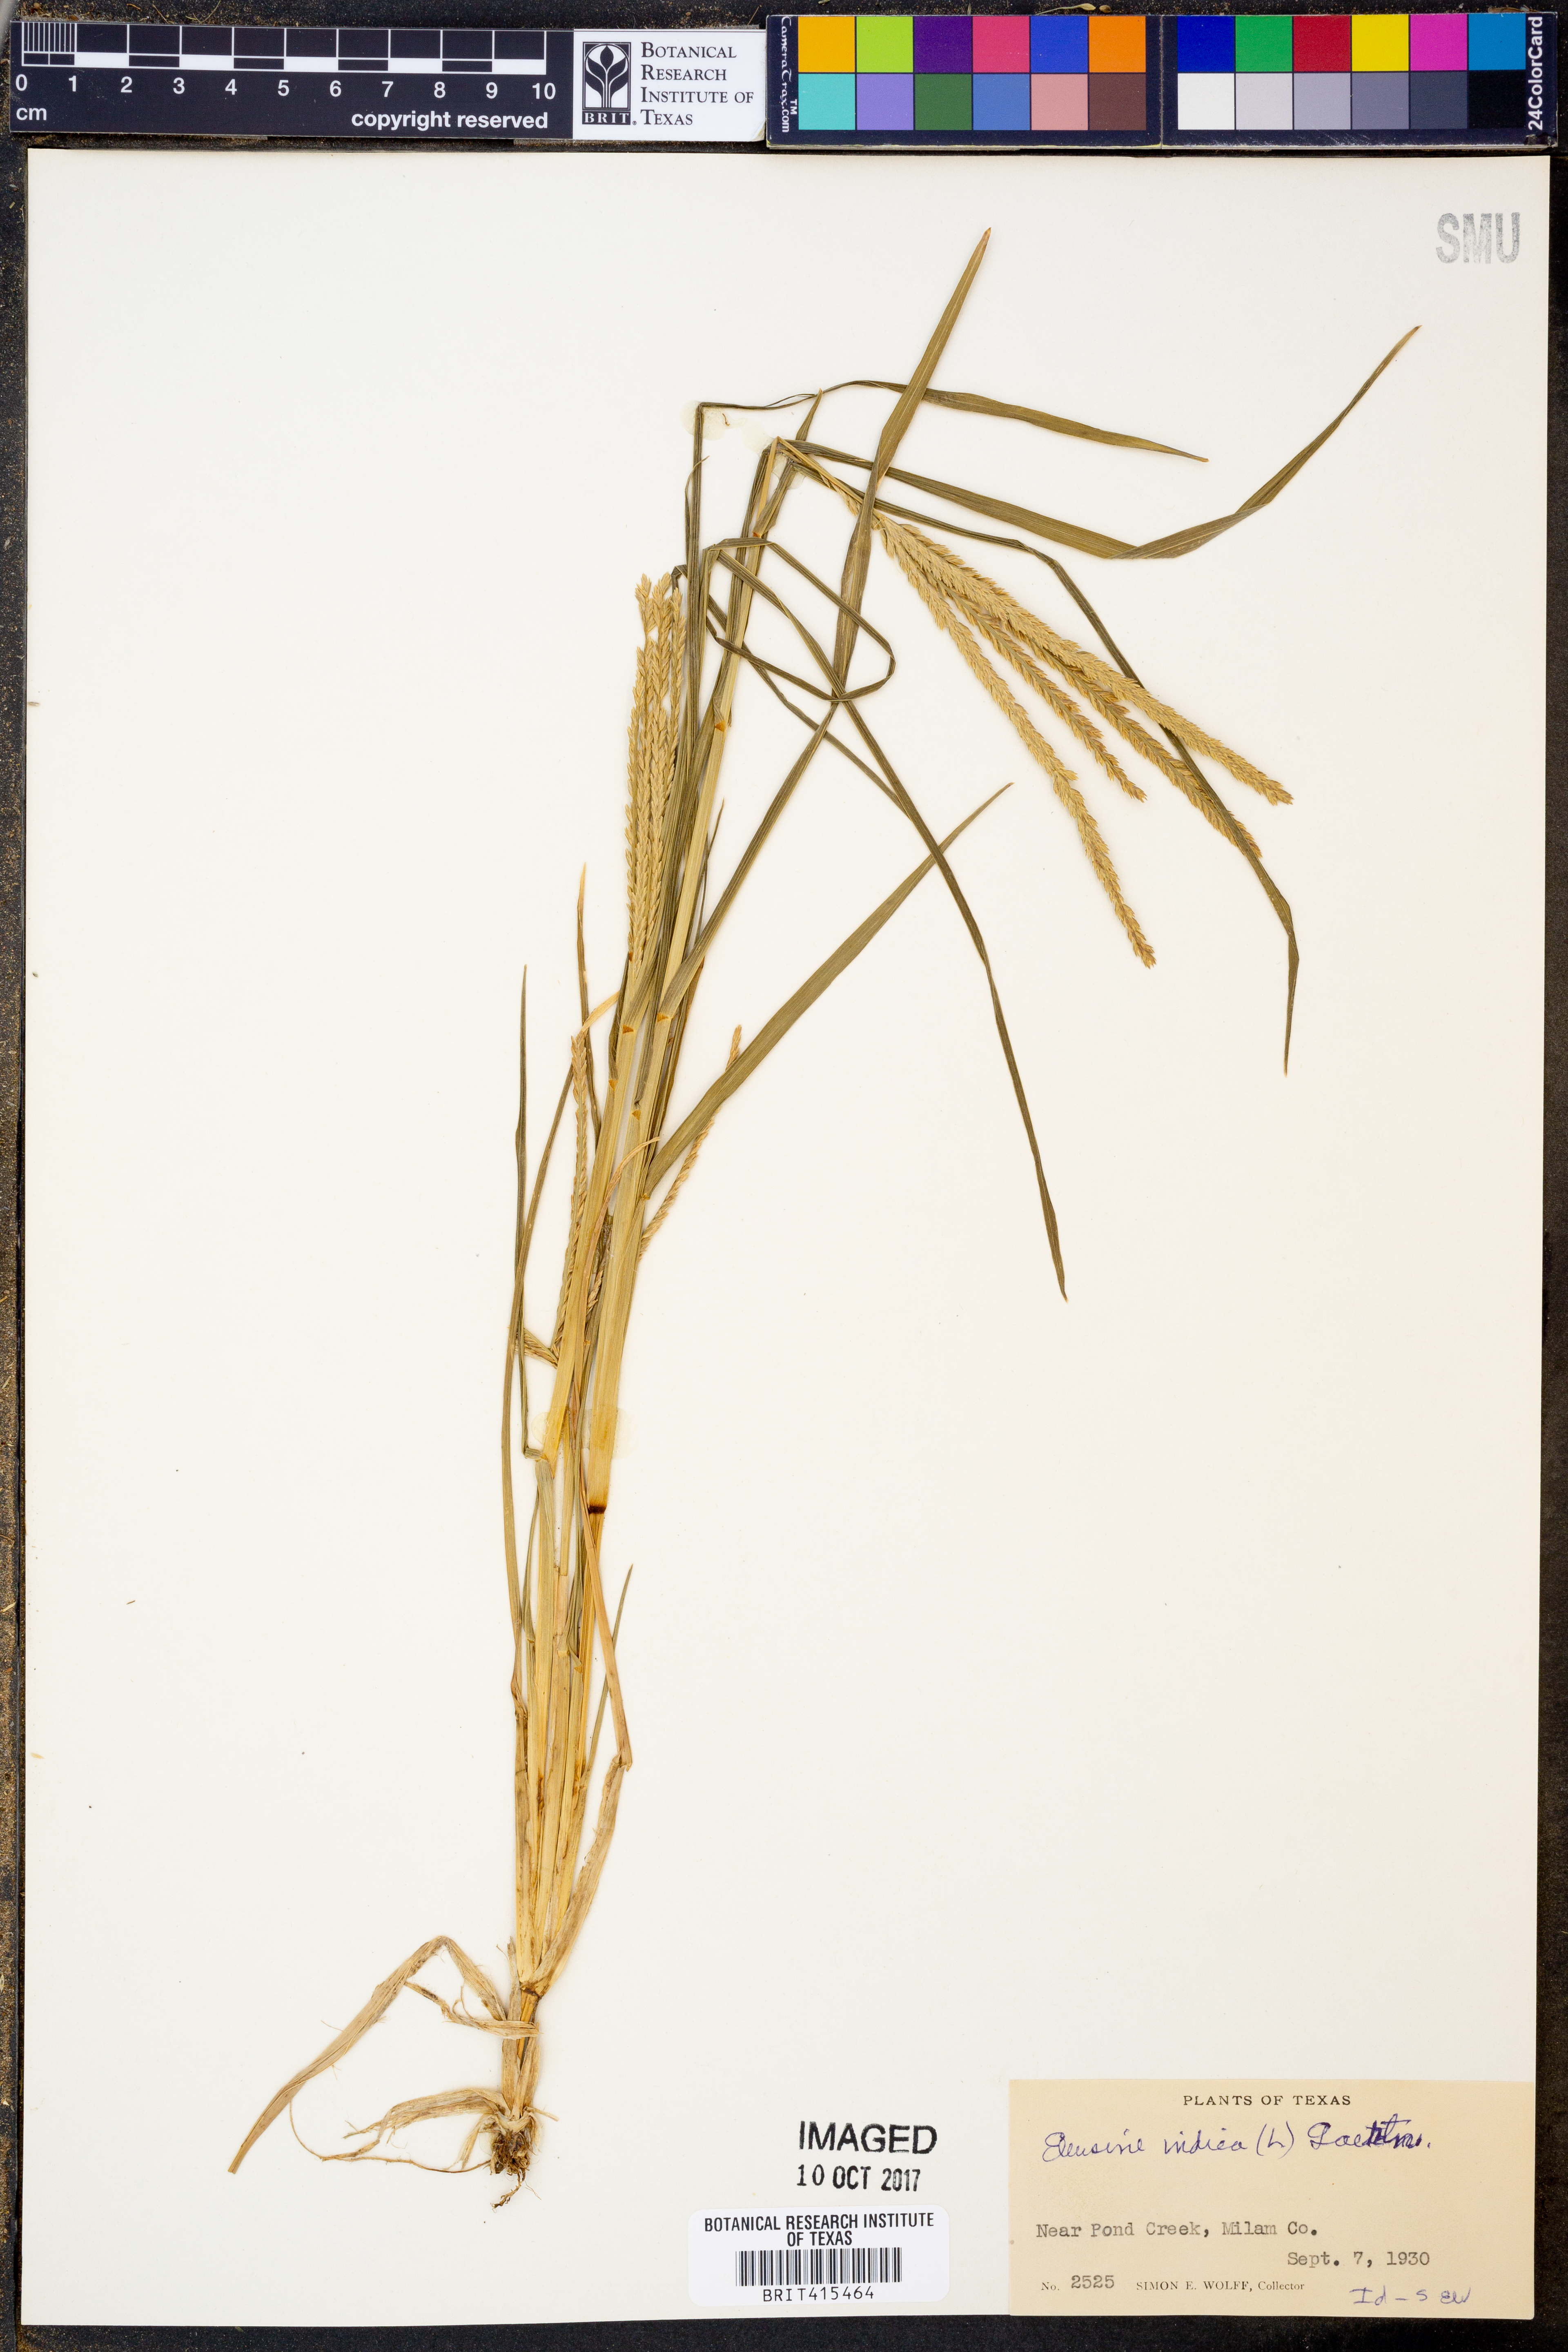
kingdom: Plantae
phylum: Tracheophyta
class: Liliopsida
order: Poales
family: Poaceae
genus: Eleusine
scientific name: Eleusine indica
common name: Yard-grass
